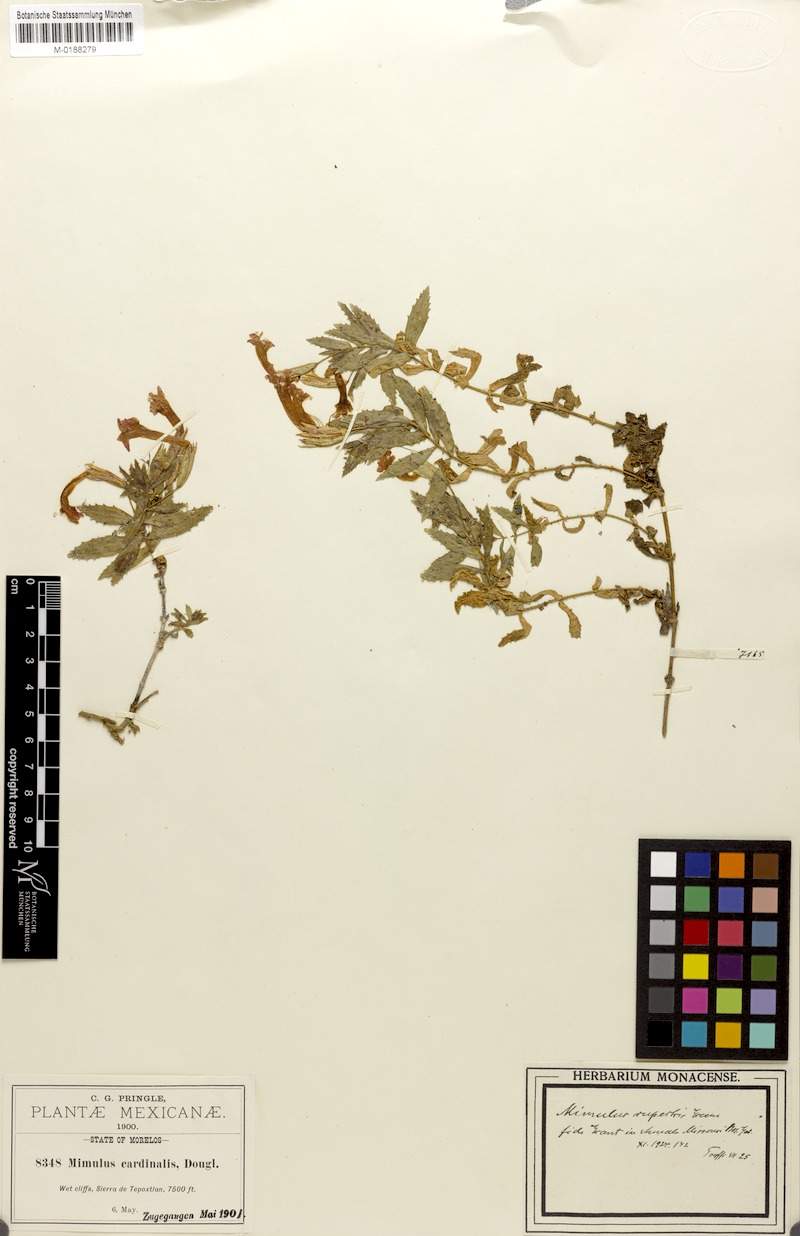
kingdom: Plantae
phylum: Tracheophyta
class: Magnoliopsida
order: Lamiales
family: Phrymaceae
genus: Erythranthe
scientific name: Erythranthe rupestris
